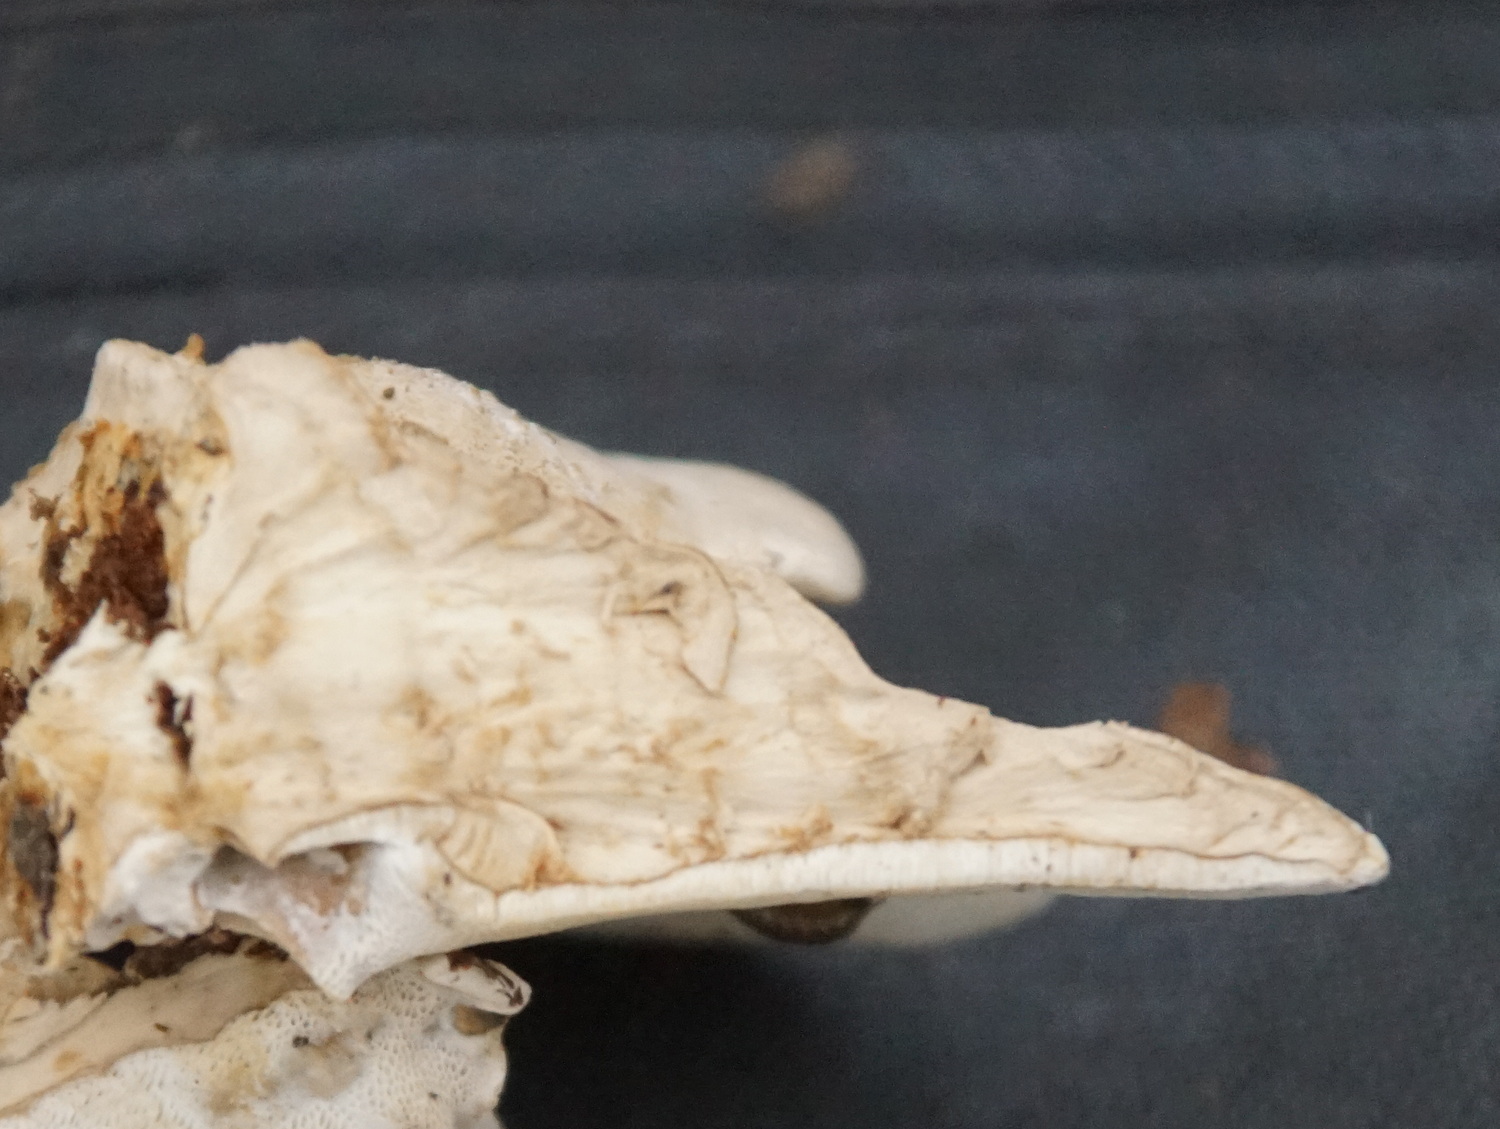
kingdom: Fungi
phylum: Basidiomycota
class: Agaricomycetes
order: Polyporales
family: Phanerochaetaceae
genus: Bjerkandera
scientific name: Bjerkandera fumosa
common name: grågul sodporesvamp
